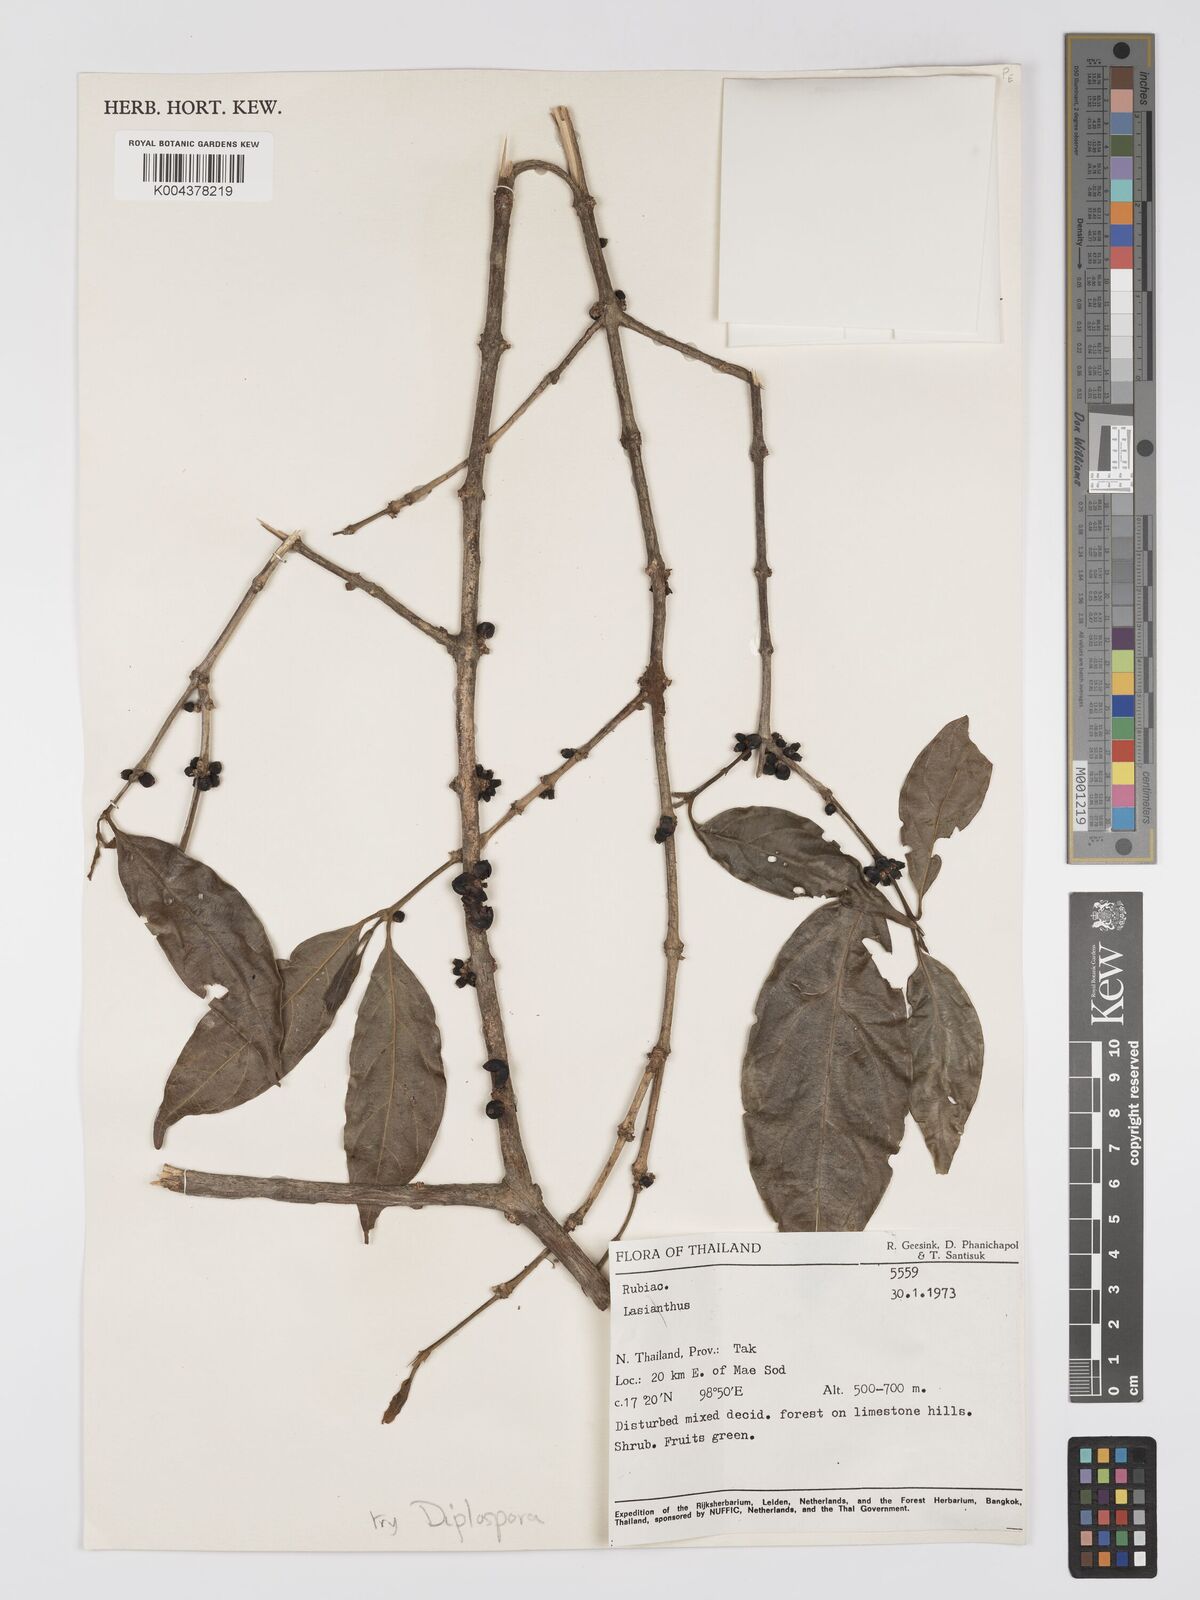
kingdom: Plantae
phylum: Tracheophyta
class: Magnoliopsida
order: Gentianales
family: Rubiaceae
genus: Diplospora
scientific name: Diplospora
